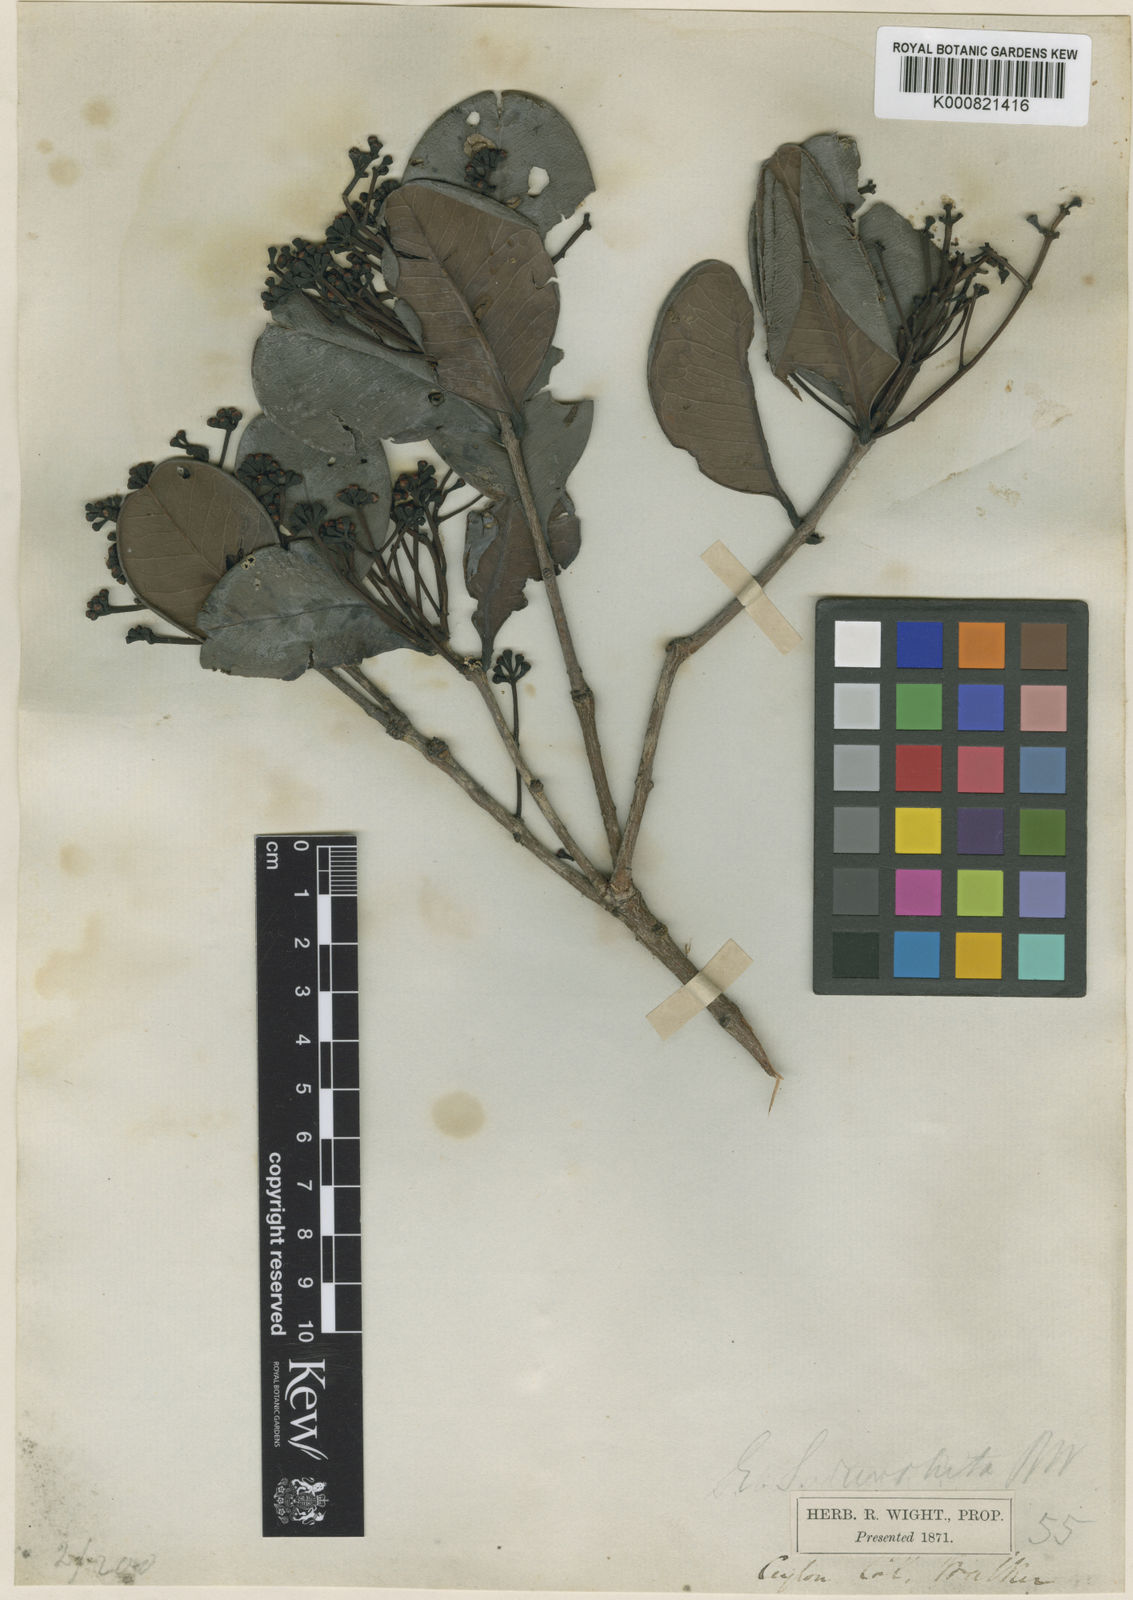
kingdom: Plantae
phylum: Tracheophyta
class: Magnoliopsida
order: Myrtales
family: Myrtaceae
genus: Syzygium
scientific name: Syzygium revolutum
